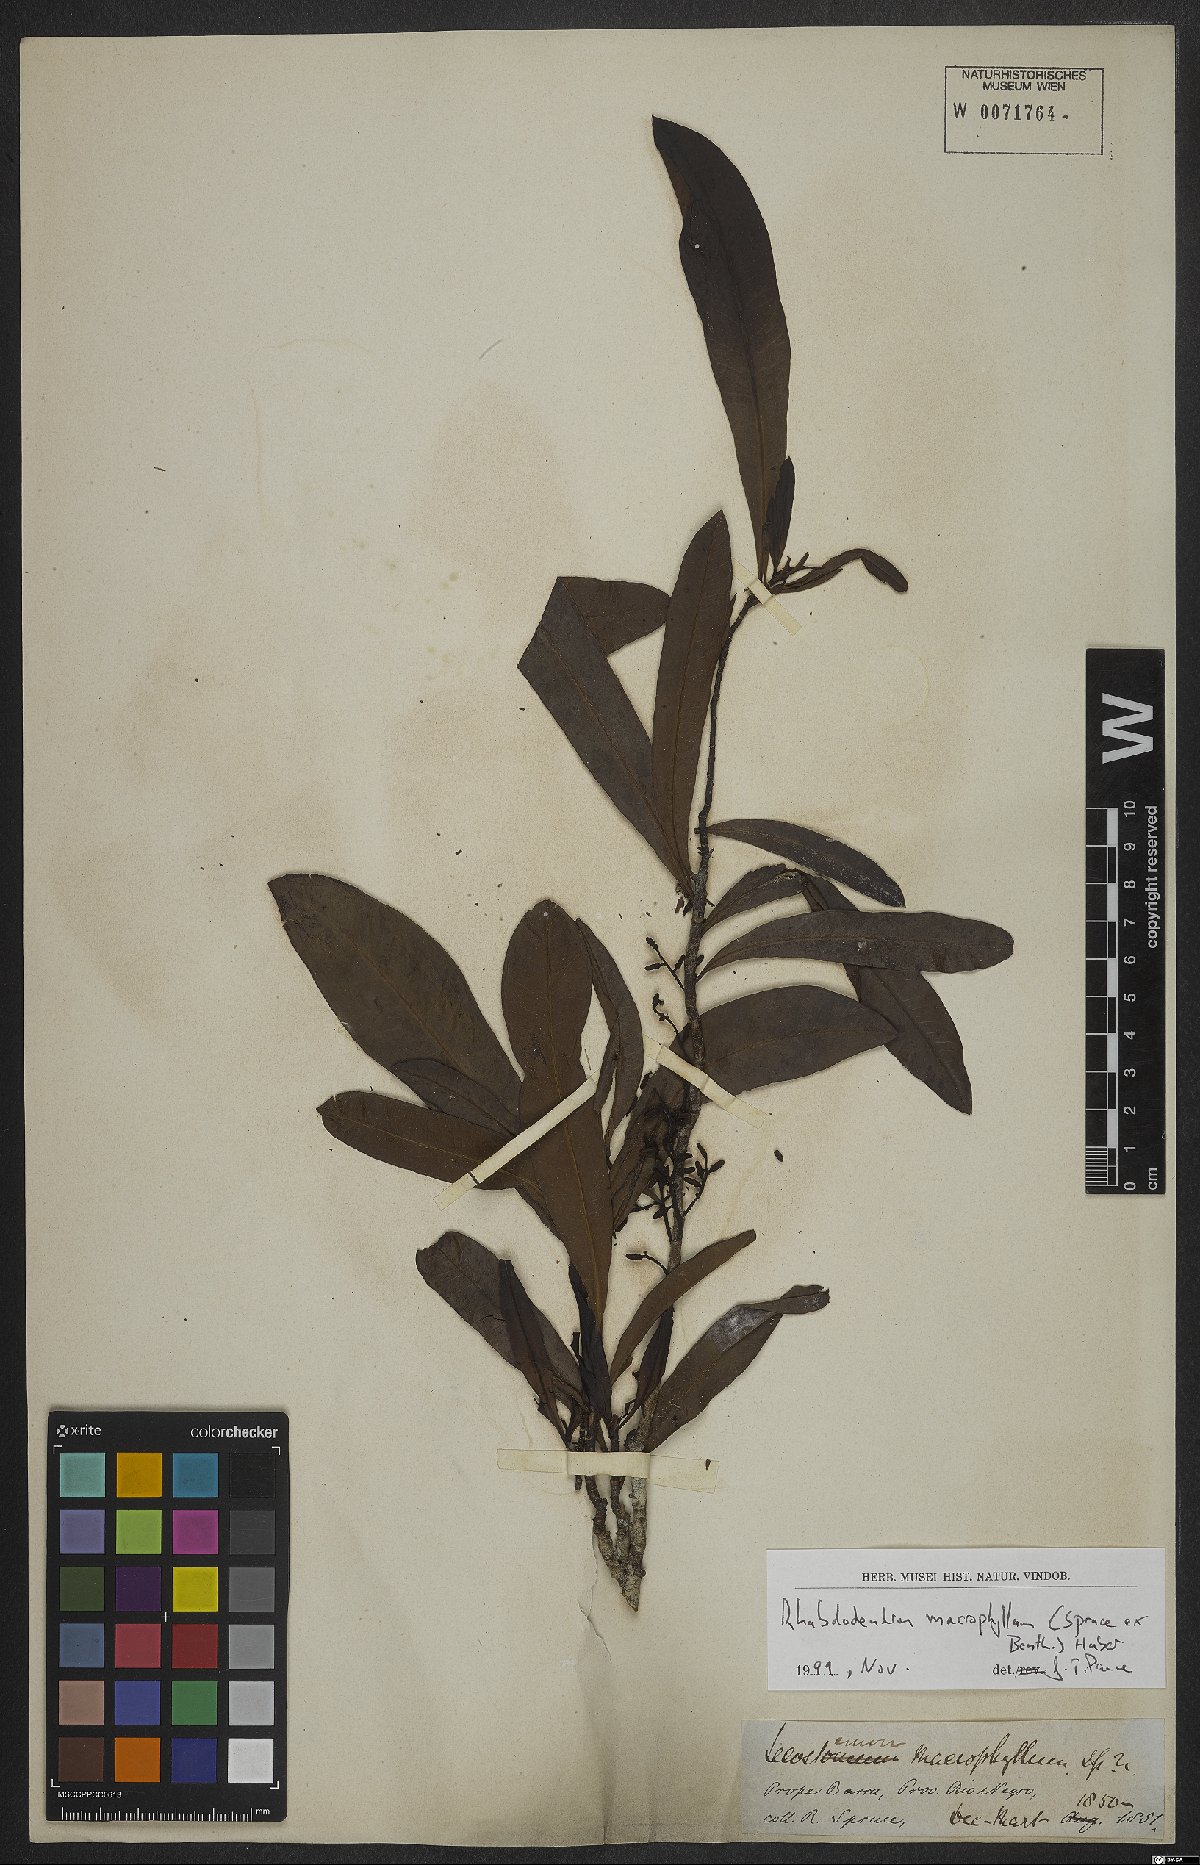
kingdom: Plantae
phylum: Tracheophyta
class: Magnoliopsida
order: Caryophyllales
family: Rhabdodendraceae
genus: Rhabdodendron
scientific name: Rhabdodendron macrophyllum
